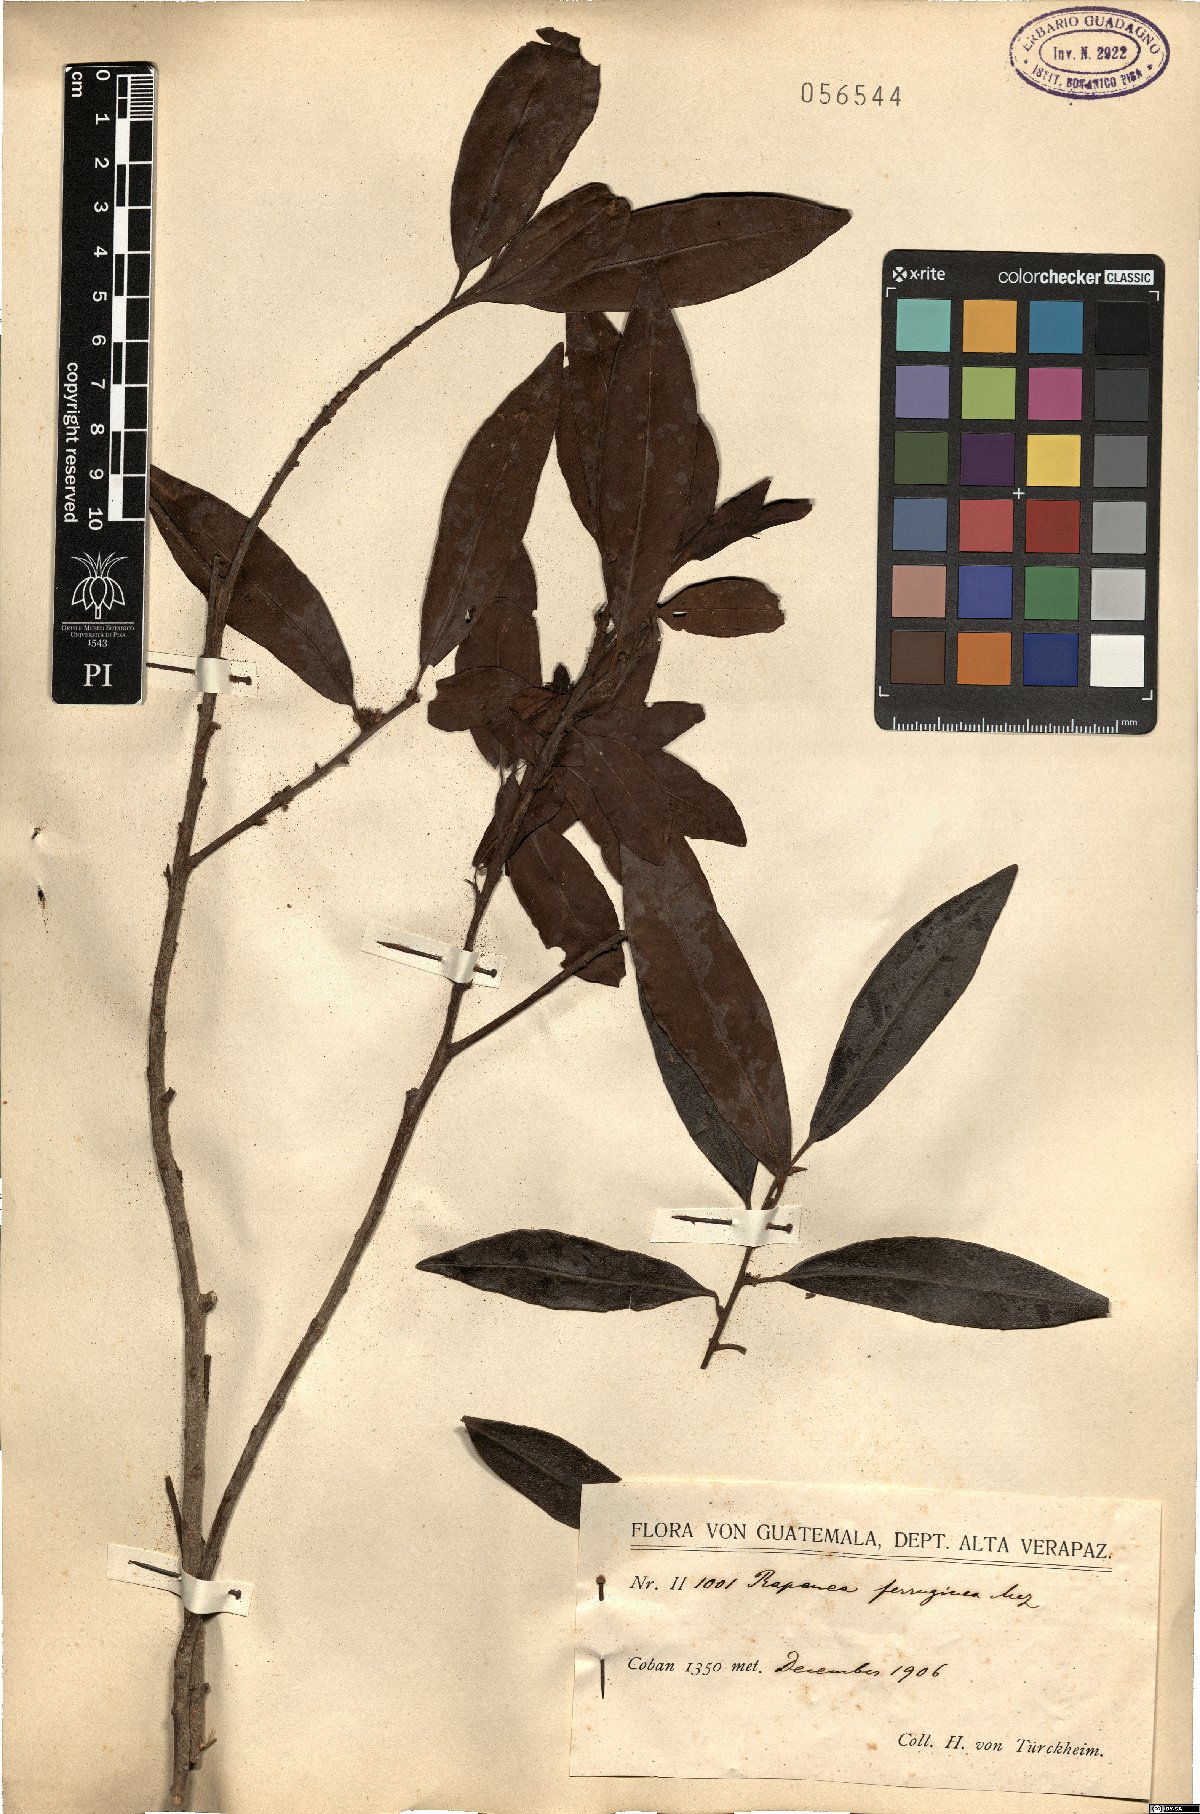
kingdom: Plantae
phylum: Tracheophyta
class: Magnoliopsida
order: Ericales
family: Primulaceae
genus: Myrsine
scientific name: Myrsine coriacea
